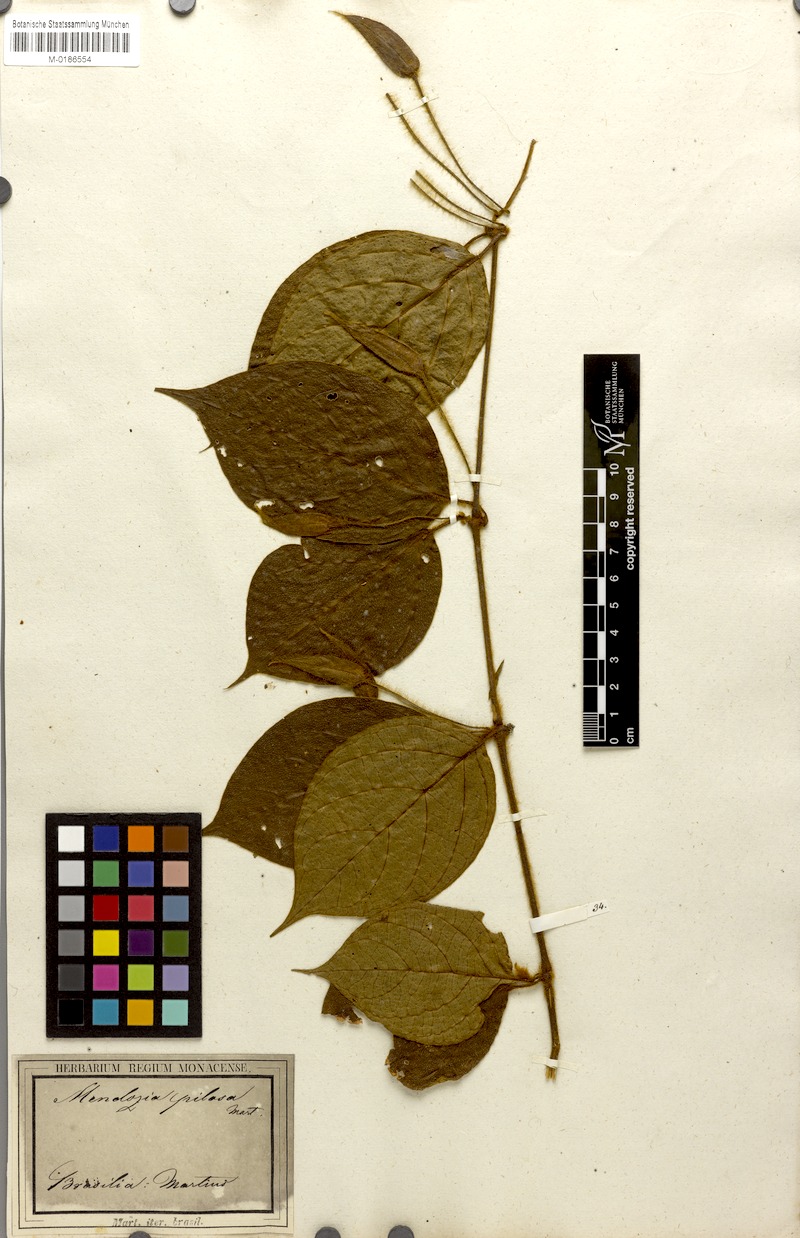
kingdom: Plantae
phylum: Tracheophyta
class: Magnoliopsida
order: Lamiales
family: Acanthaceae
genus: Mendoncia
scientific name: Mendoncia pilosa
